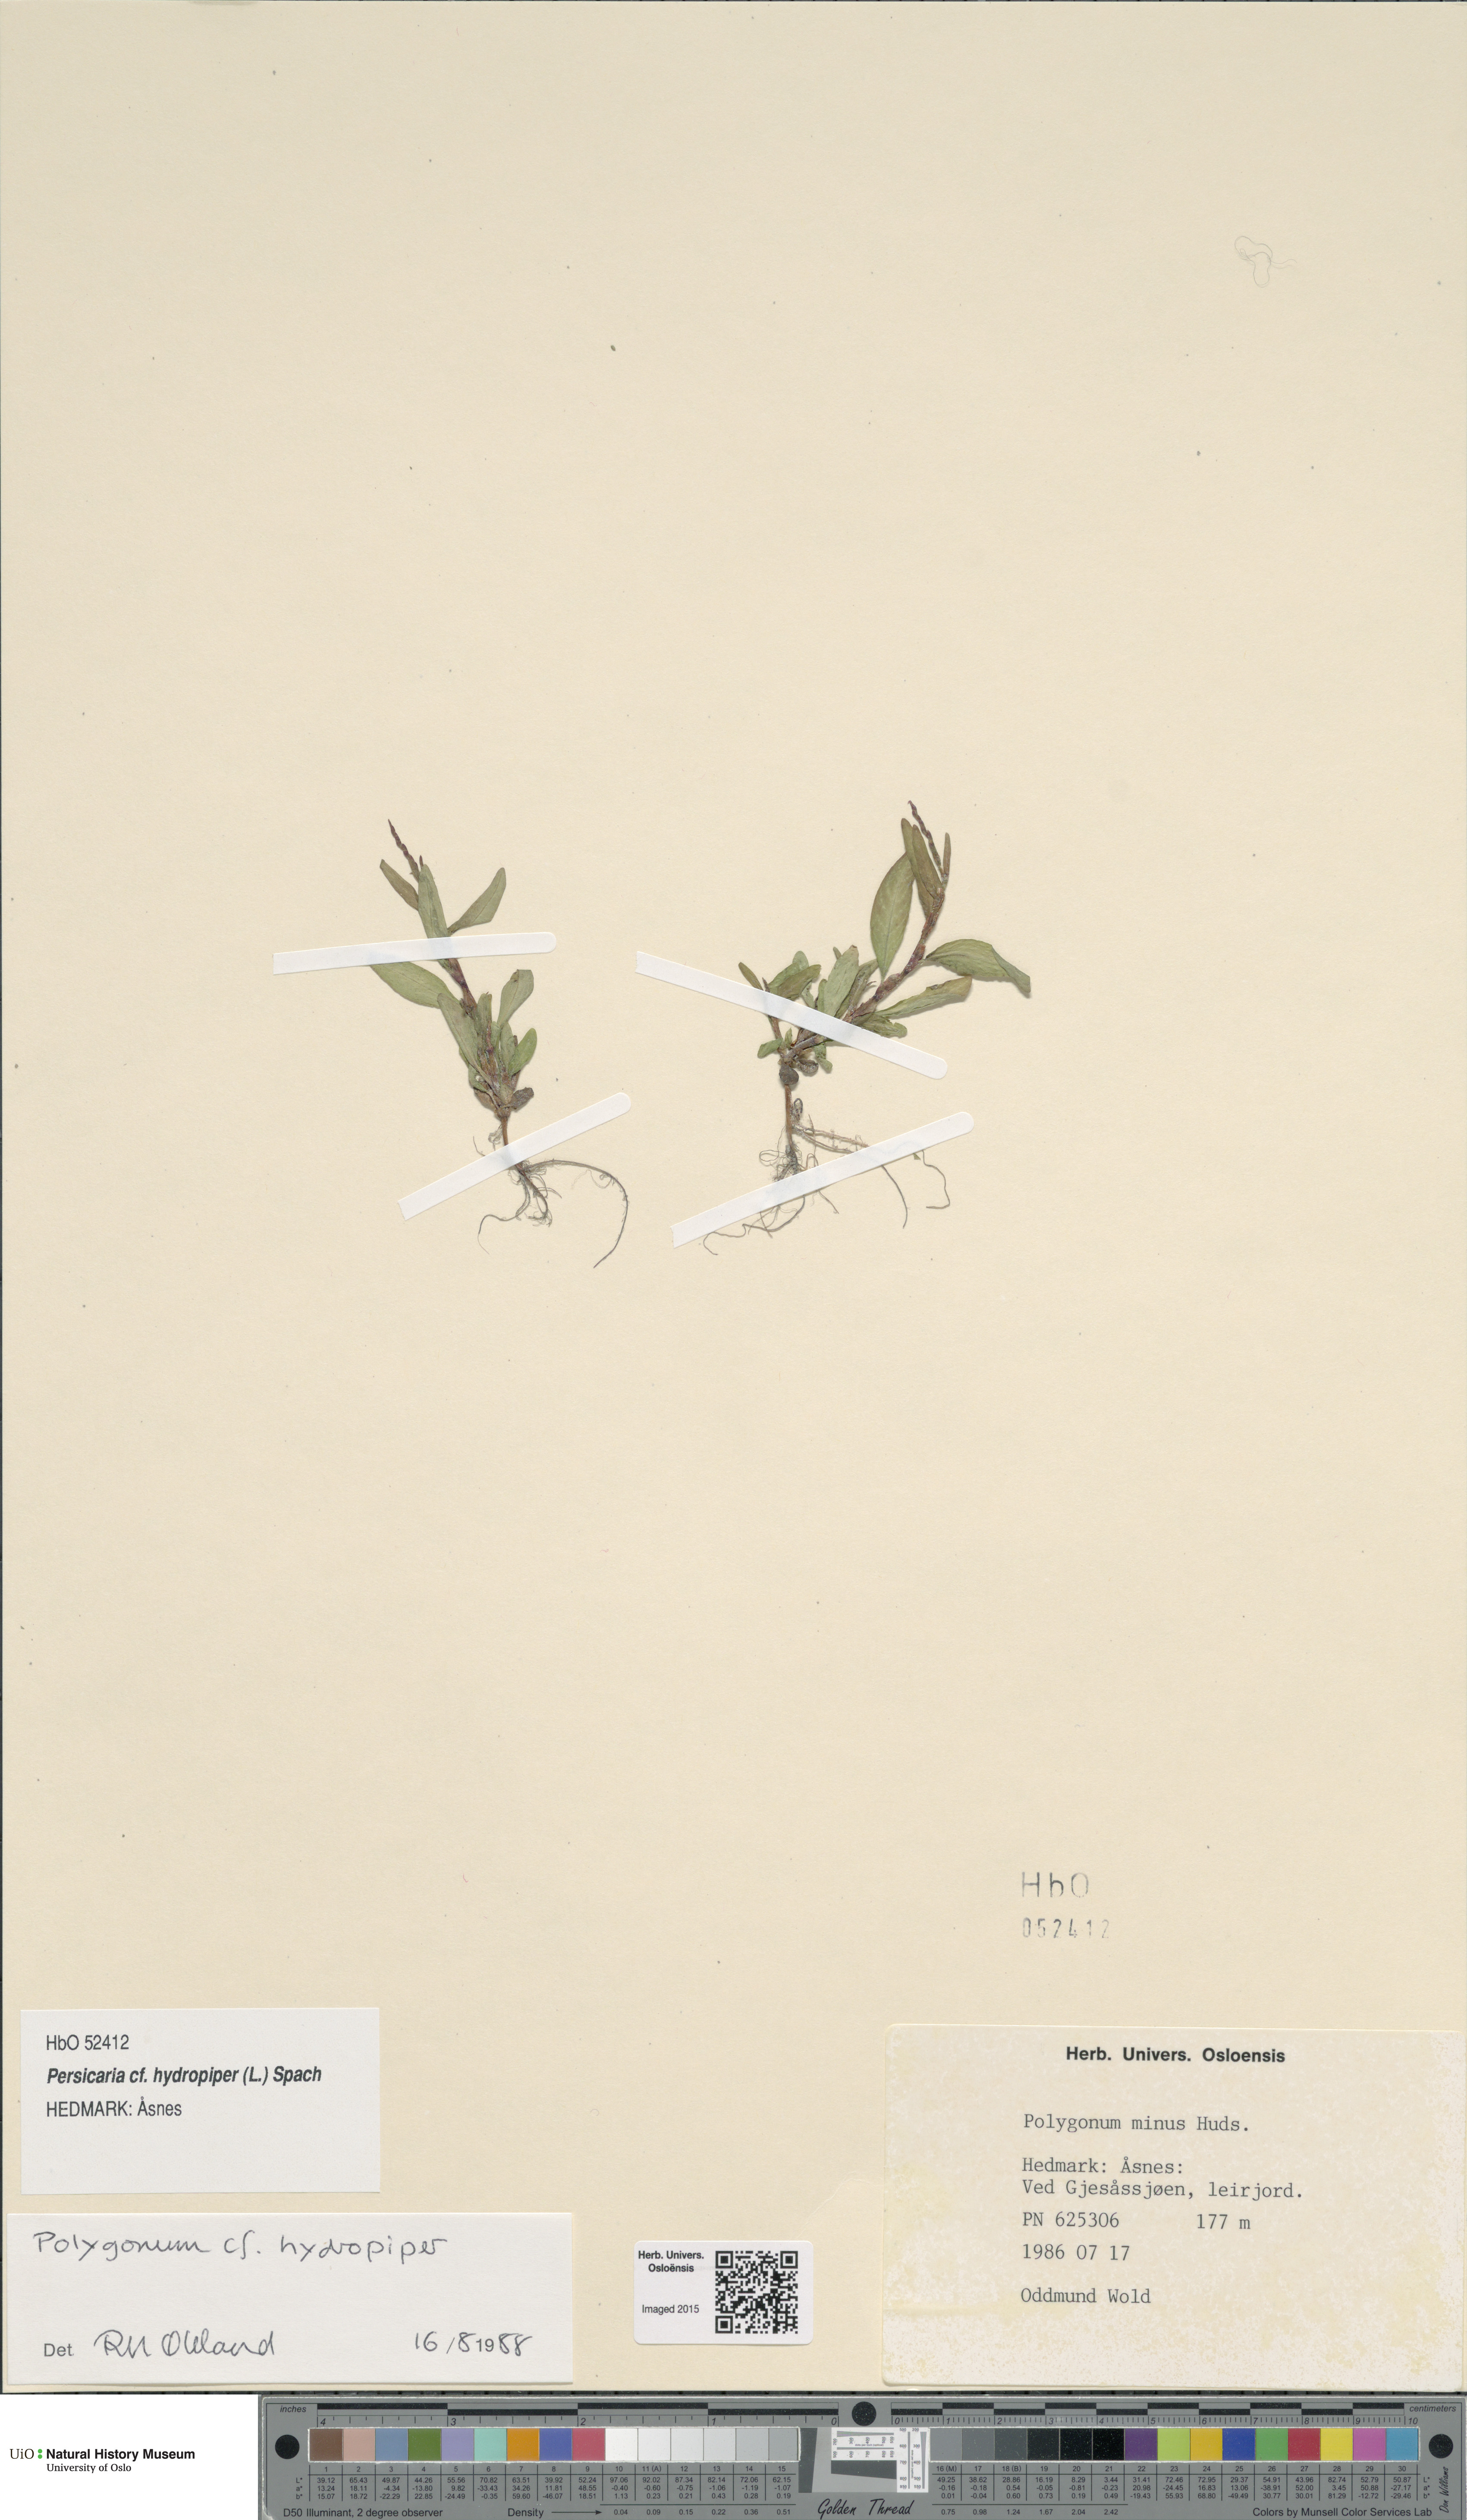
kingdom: Plantae
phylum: Tracheophyta
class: Magnoliopsida
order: Caryophyllales
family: Polygonaceae
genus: Persicaria
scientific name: Persicaria hydropiper
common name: Water-pepper
